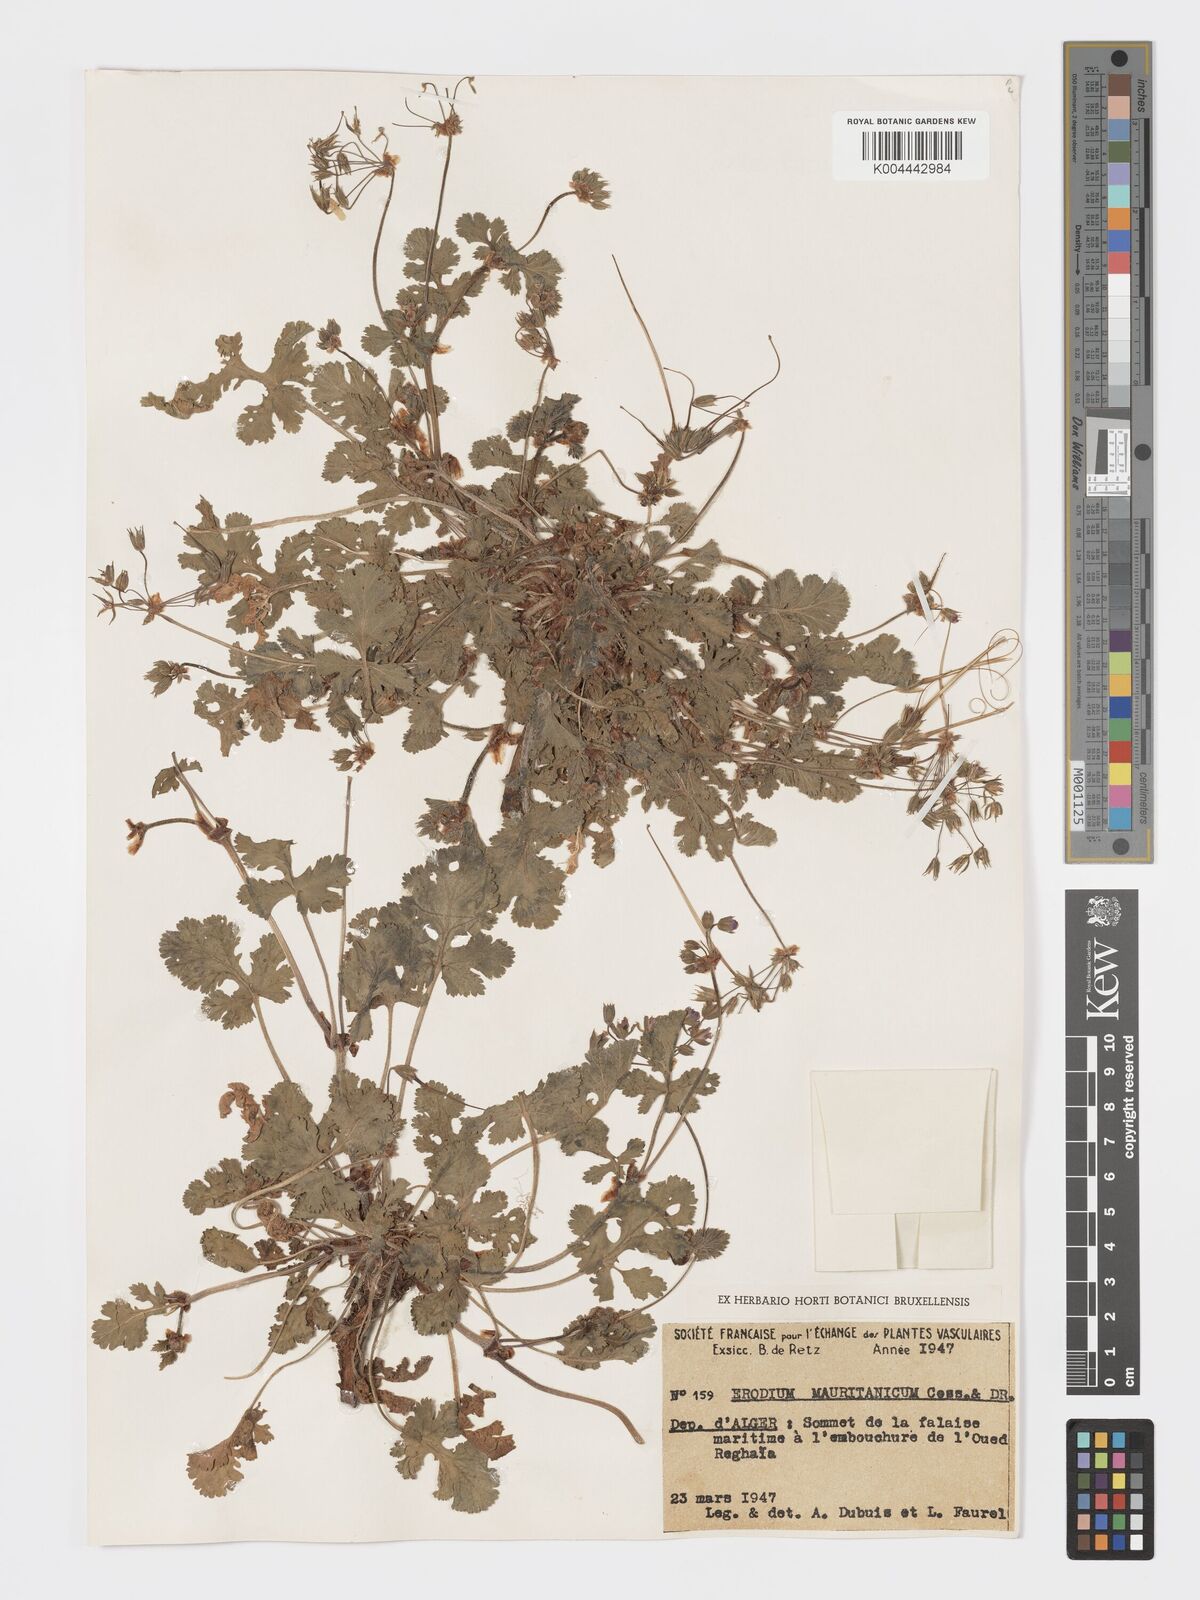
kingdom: Plantae
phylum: Tracheophyta
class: Magnoliopsida
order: Geraniales
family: Geraniaceae
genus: Erodium
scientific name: Erodium munbyanum
